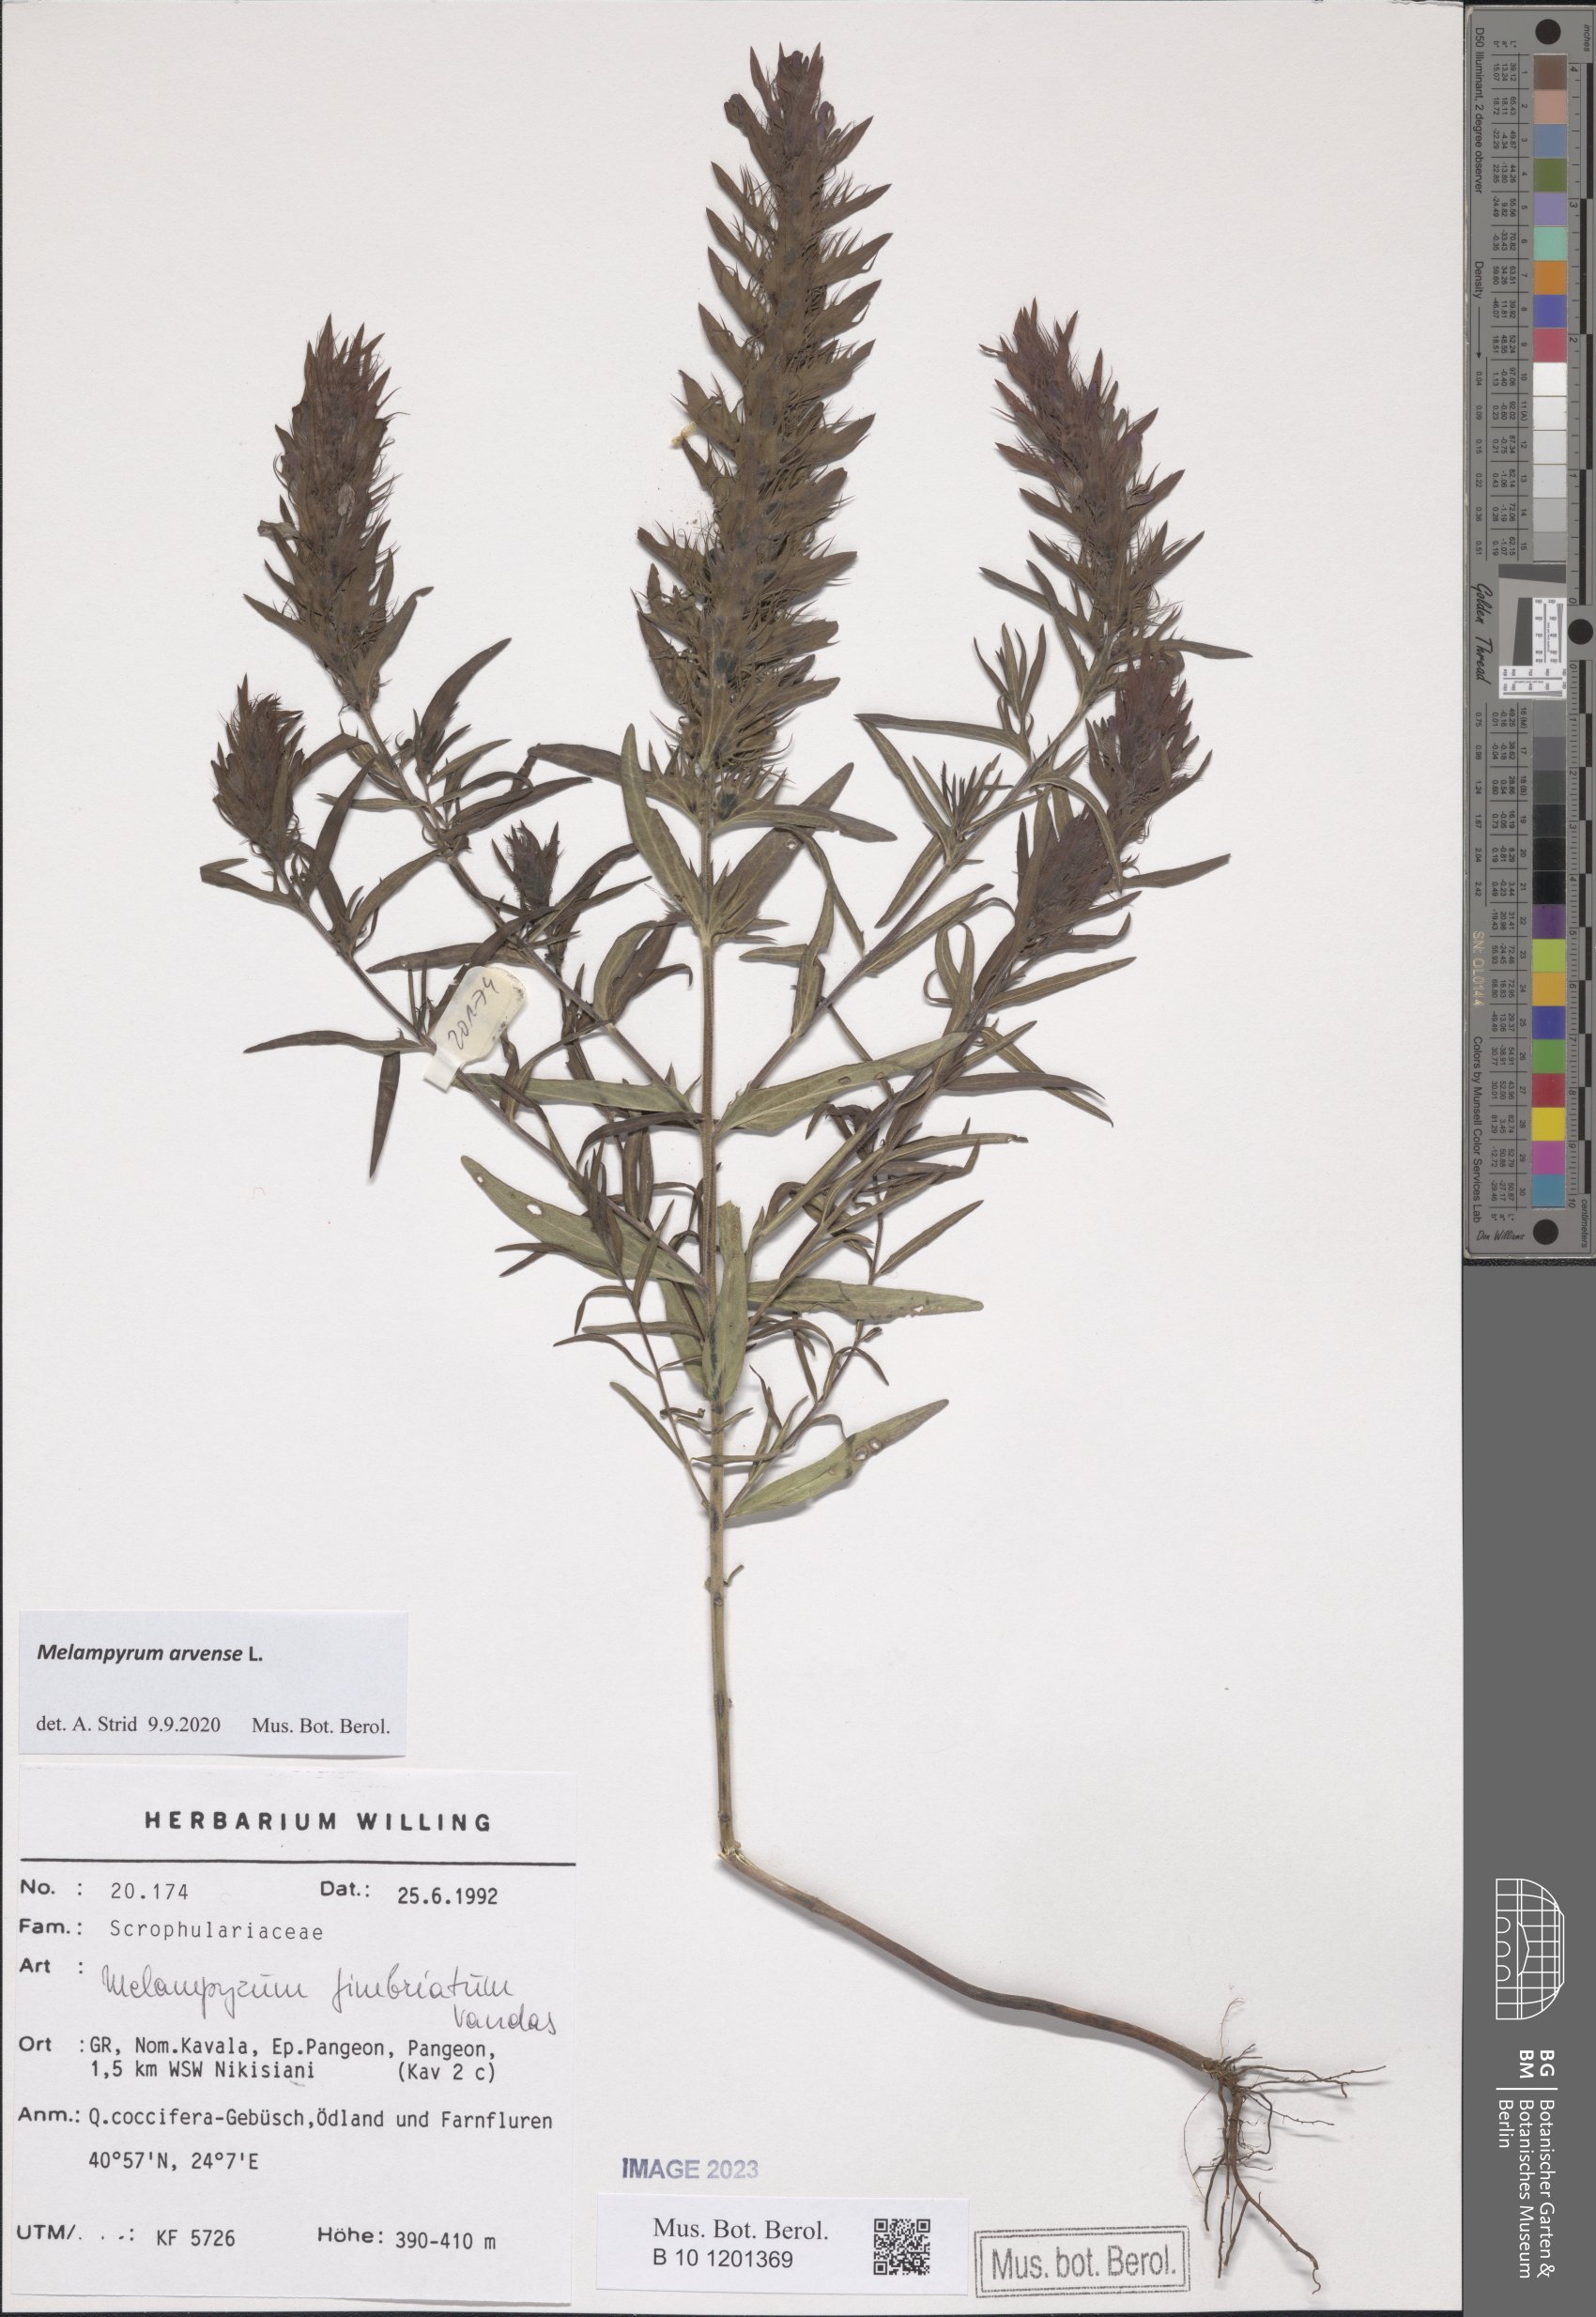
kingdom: Plantae
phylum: Tracheophyta
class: Magnoliopsida
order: Lamiales
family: Orobanchaceae
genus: Melampyrum
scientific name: Melampyrum arvense
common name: Field cow-wheat
